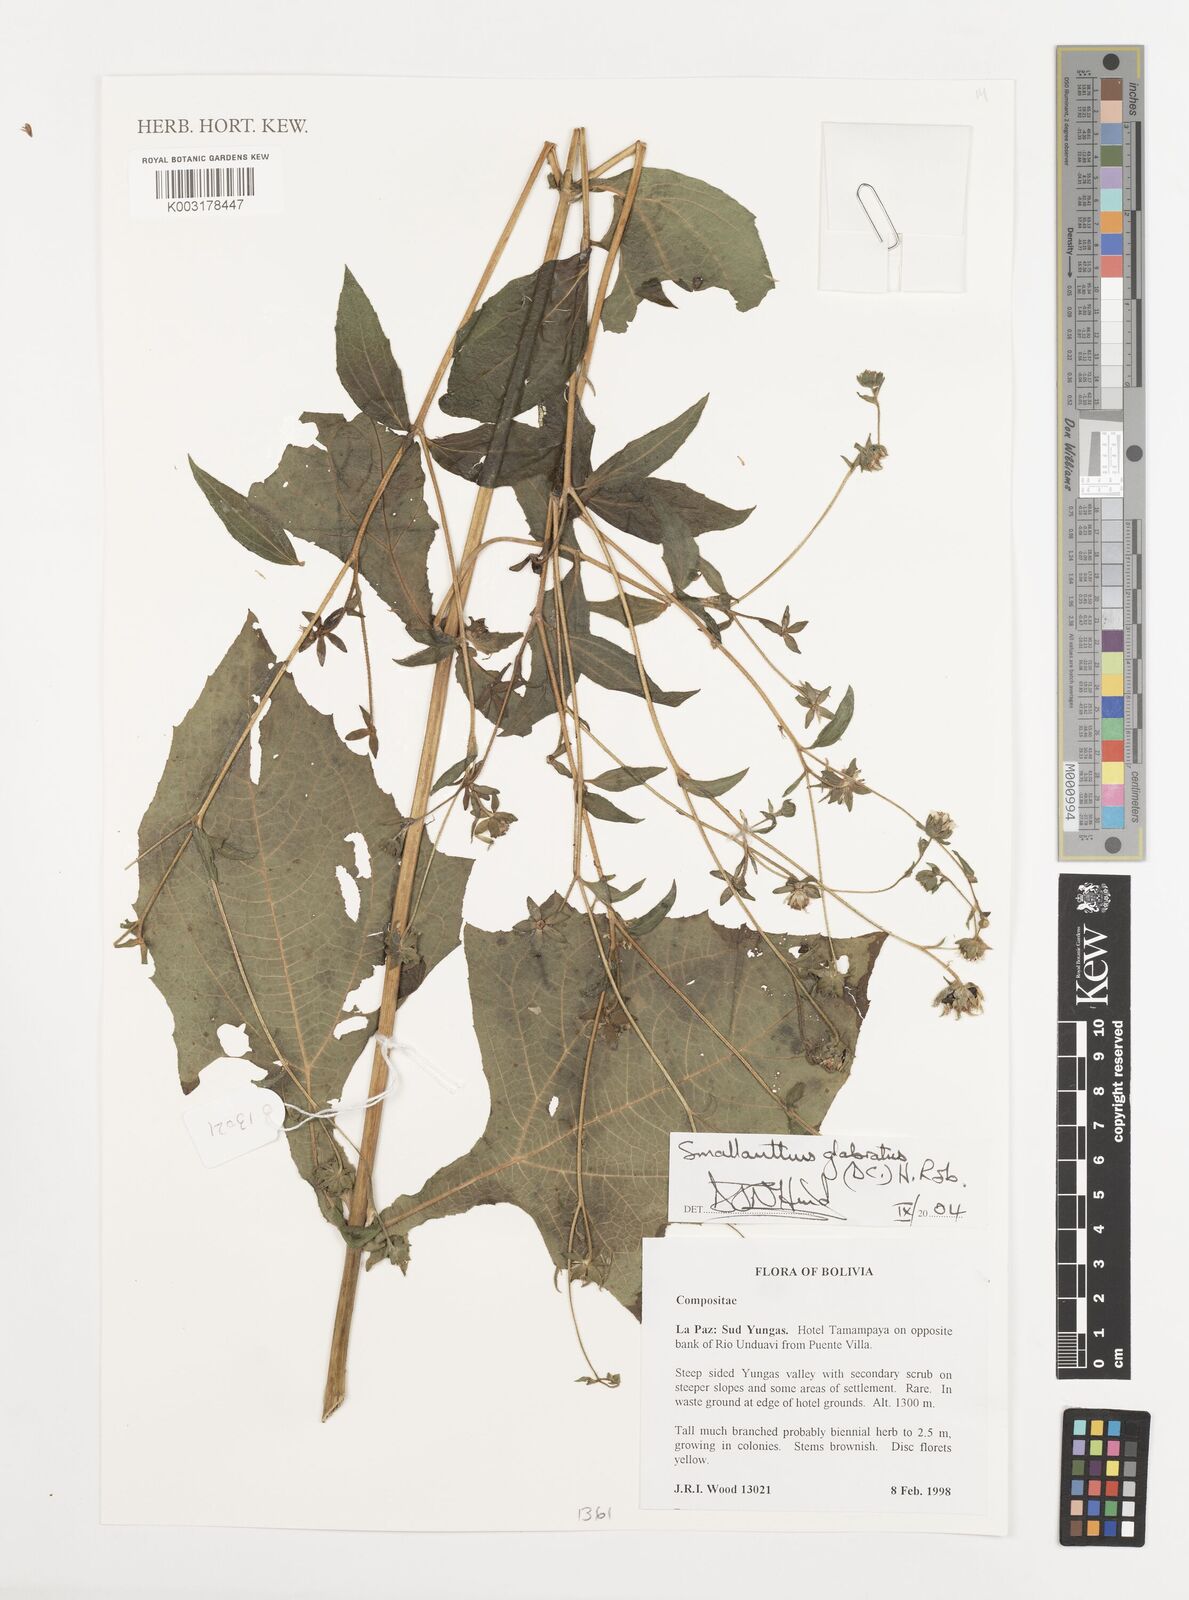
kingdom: Plantae
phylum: Tracheophyta
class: Magnoliopsida
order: Asterales
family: Asteraceae
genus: Smallanthus
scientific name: Smallanthus glabratus
